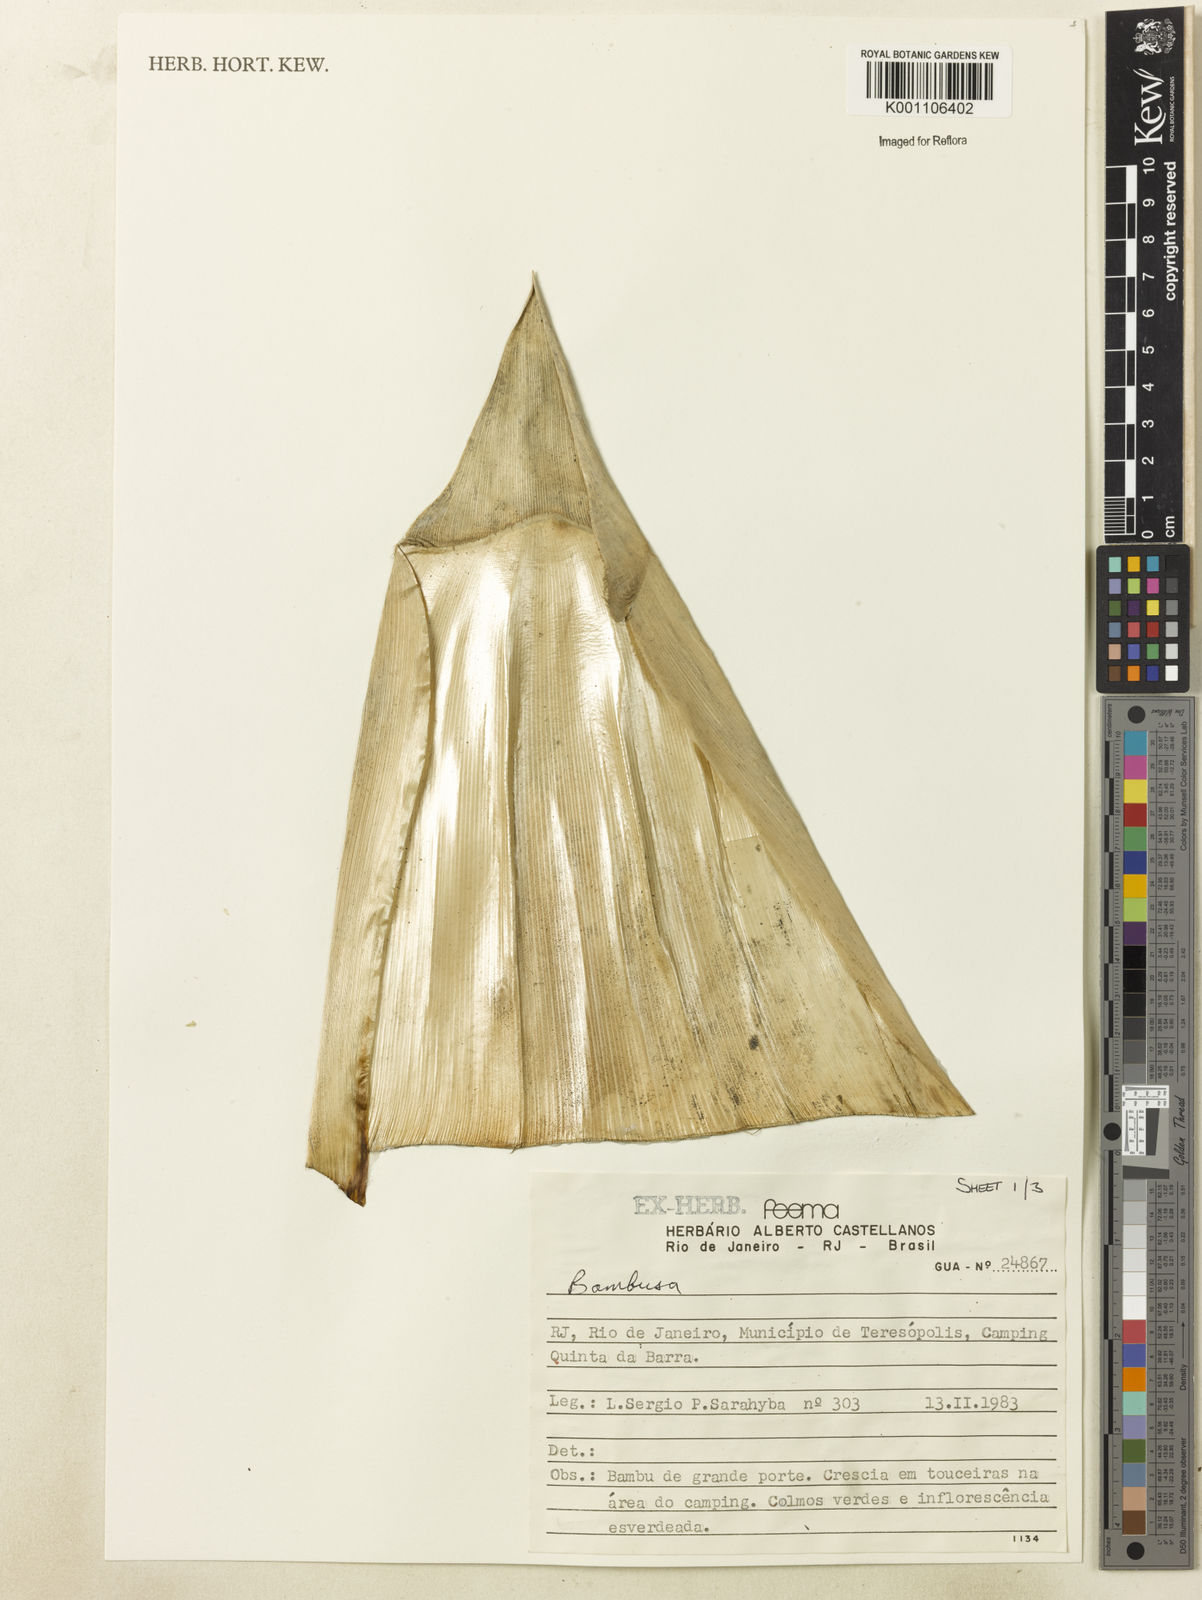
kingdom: Plantae
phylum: Tracheophyta
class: Liliopsida
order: Poales
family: Poaceae
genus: Bambusa
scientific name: Bambusa tuldoides
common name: Verdant bamboo
